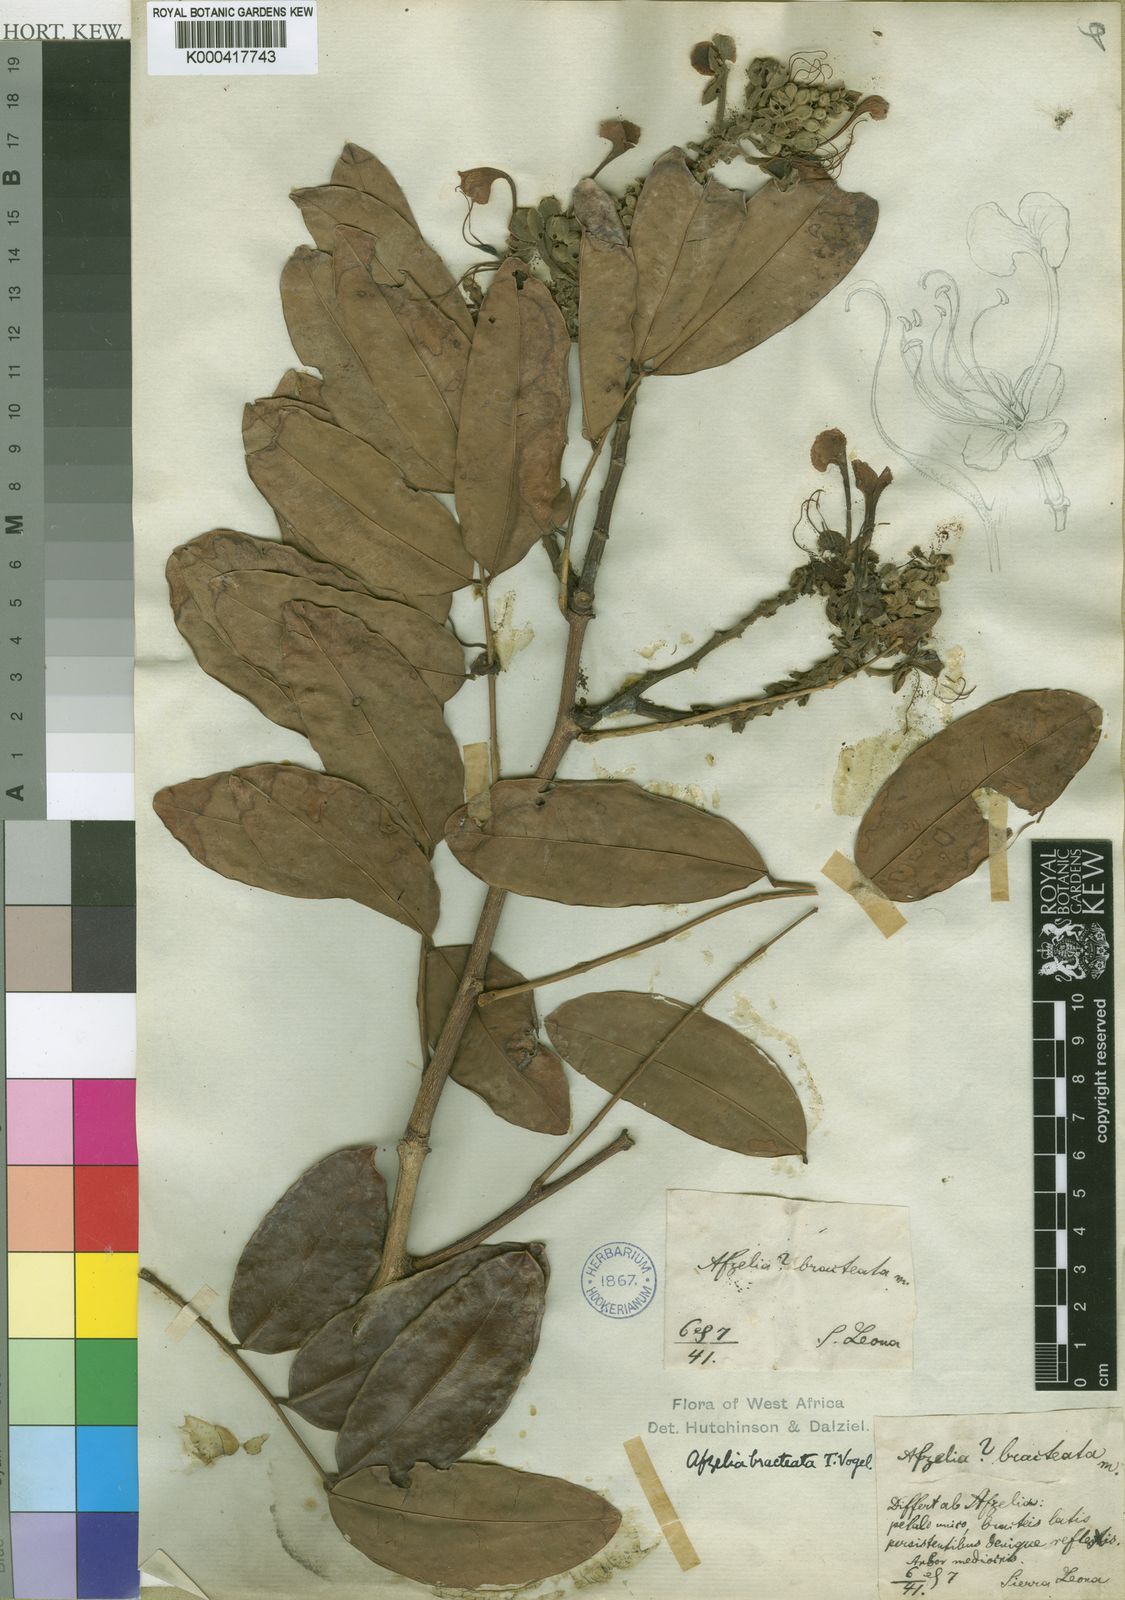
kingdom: Plantae
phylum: Tracheophyta
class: Magnoliopsida
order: Fabales
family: Fabaceae
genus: Afzelia
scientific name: Afzelia parviflora
